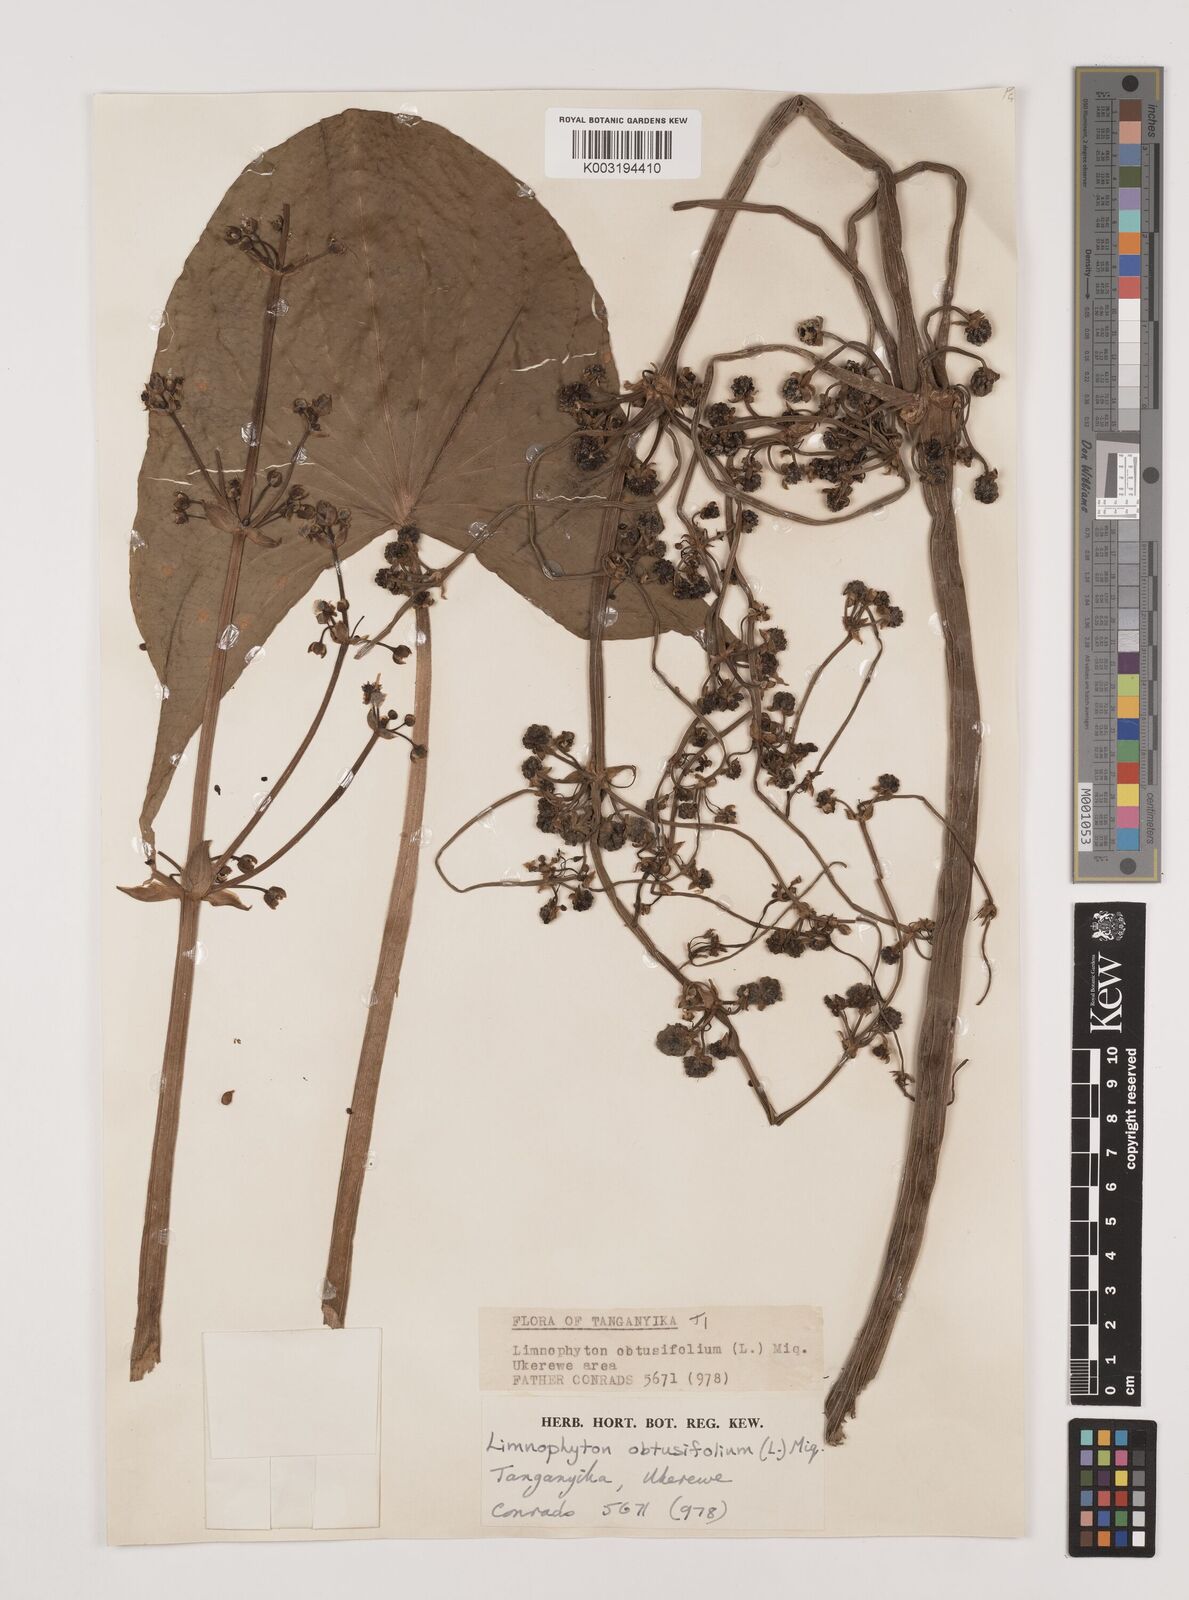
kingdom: Plantae
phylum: Tracheophyta
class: Liliopsida
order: Alismatales
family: Alismataceae
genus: Limnophyton
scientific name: Limnophyton obtusifolium
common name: Arrow head
